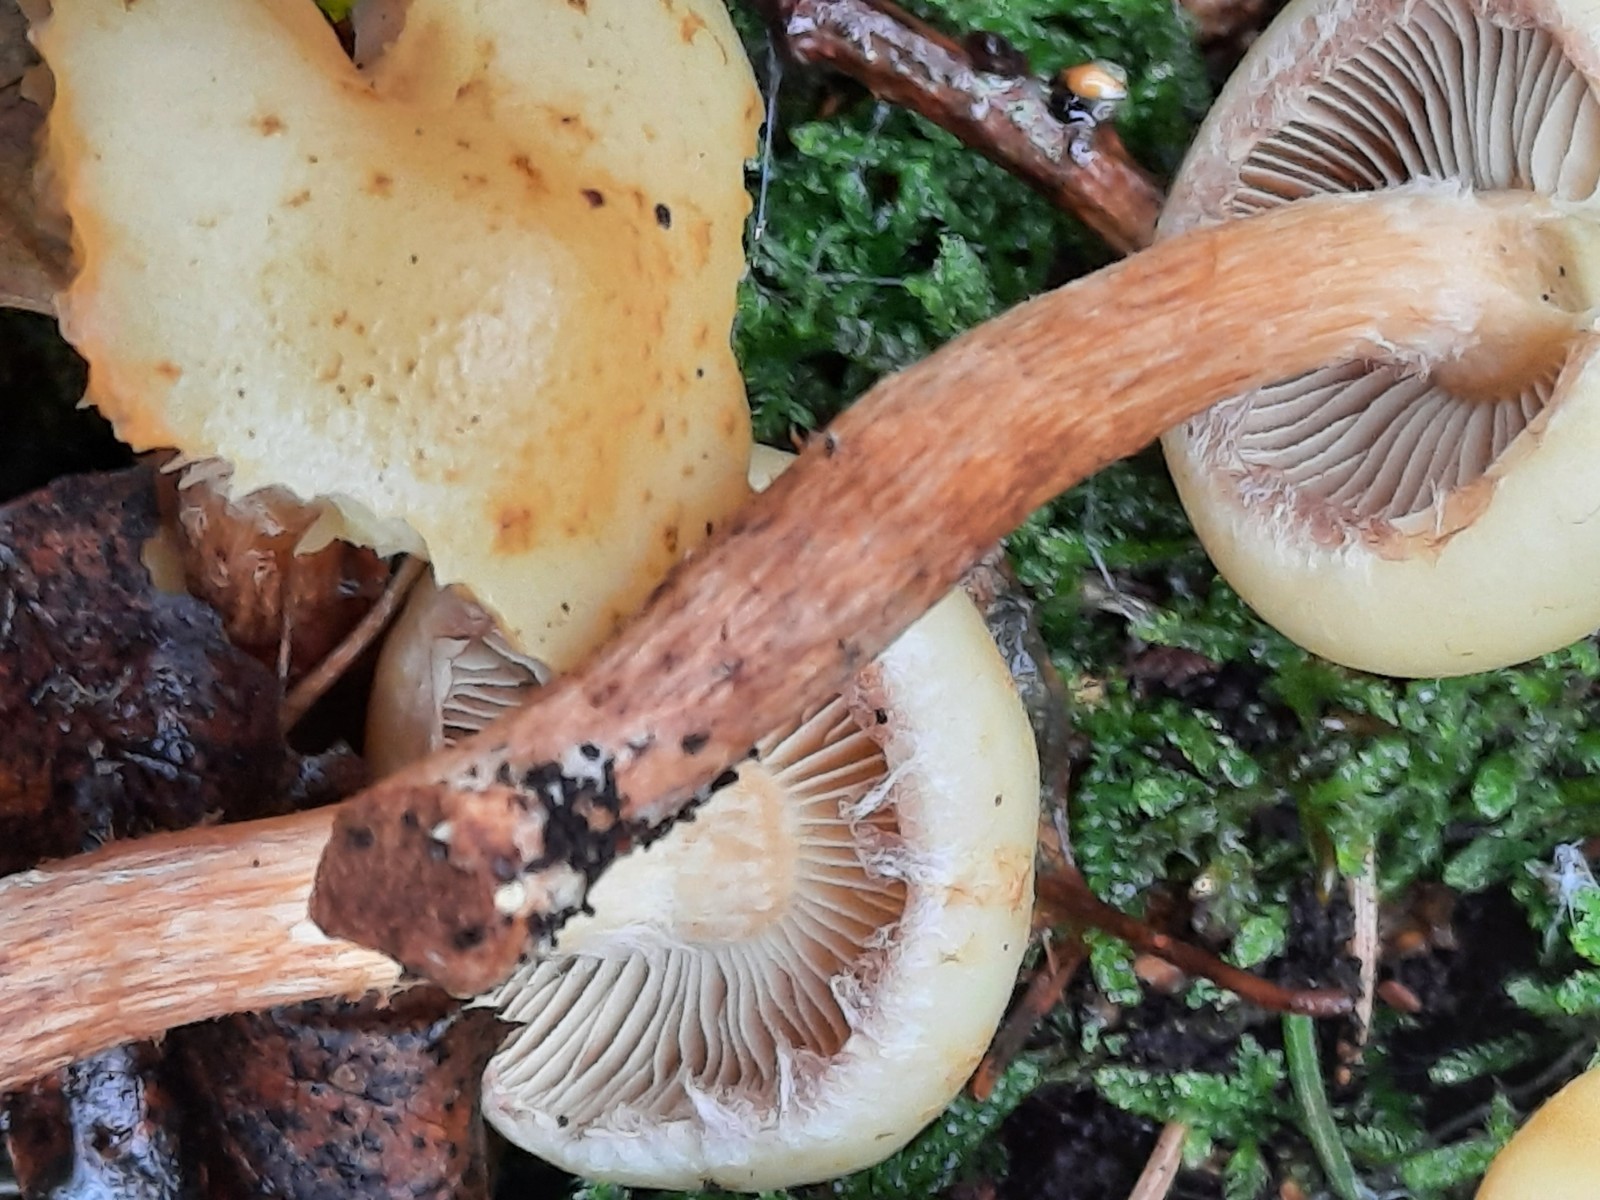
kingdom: Fungi
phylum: Basidiomycota
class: Agaricomycetes
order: Agaricales
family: Hymenogastraceae
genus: Flammula
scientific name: Flammula alnicola
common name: elle-skælhat
